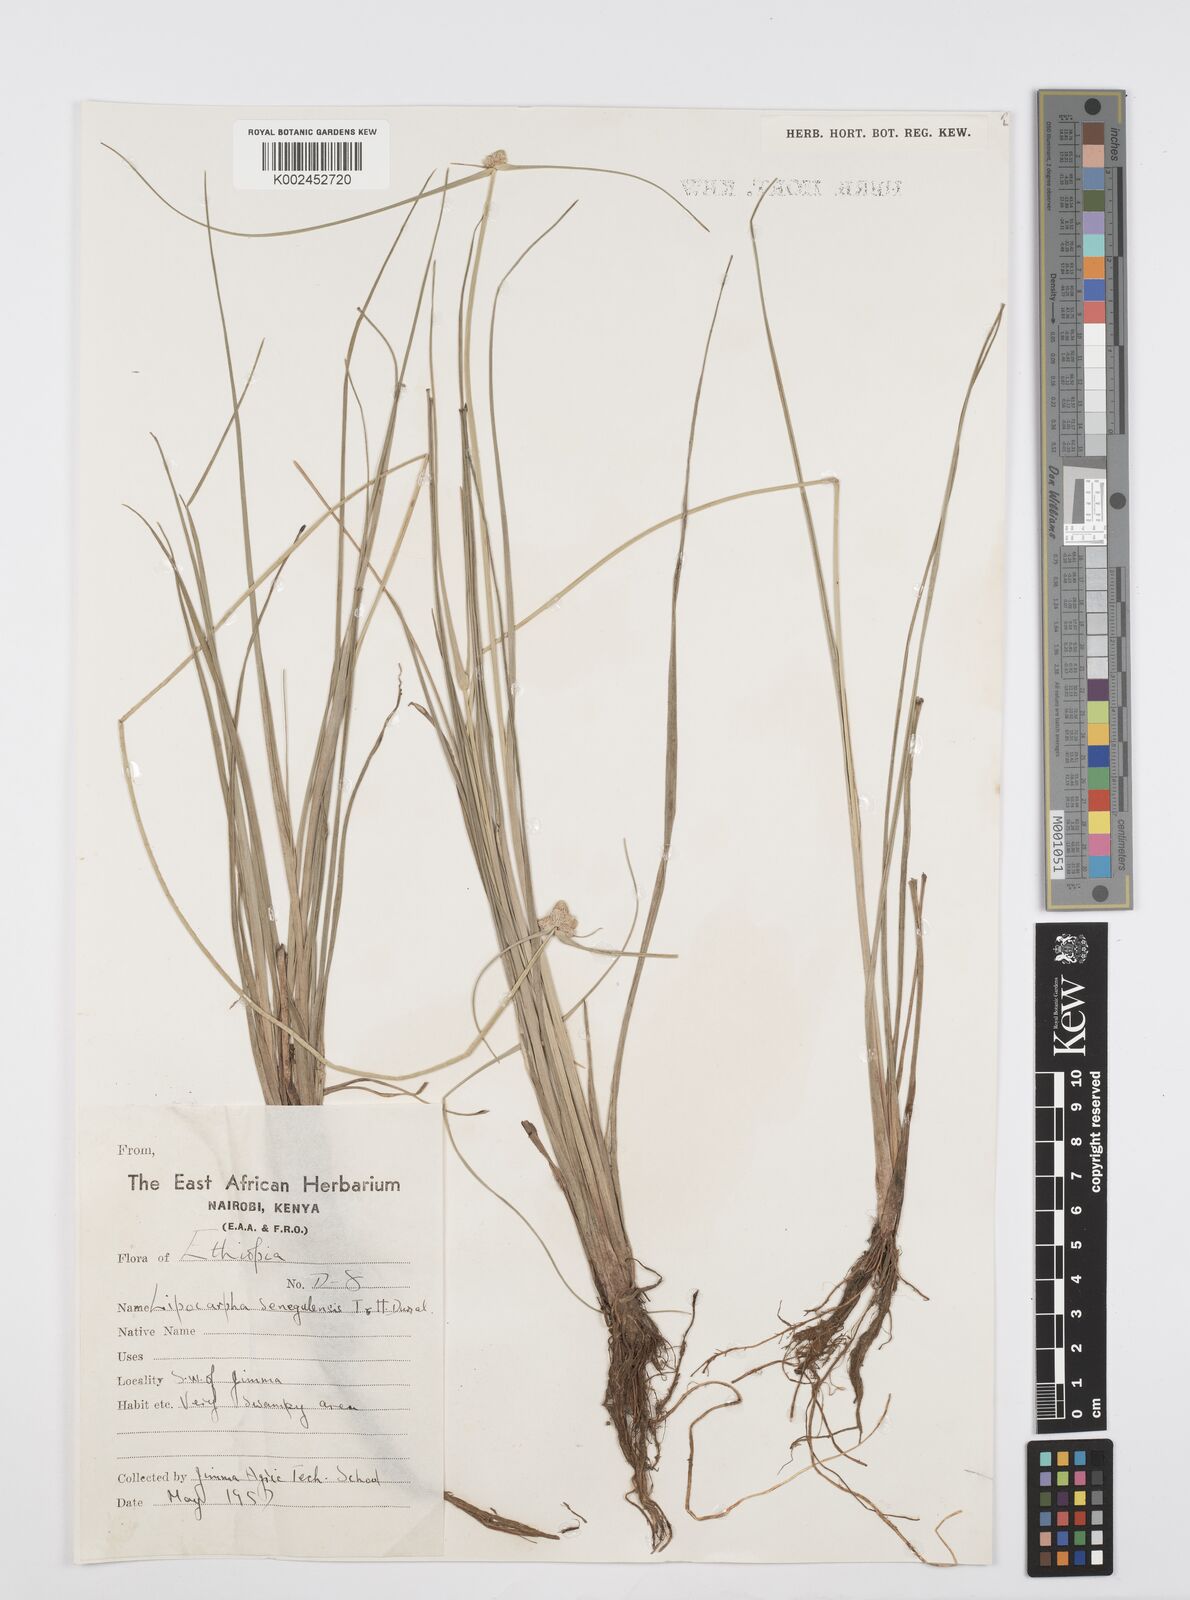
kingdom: Plantae
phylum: Tracheophyta
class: Liliopsida
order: Poales
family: Cyperaceae
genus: Cyperus
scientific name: Cyperus albescens
